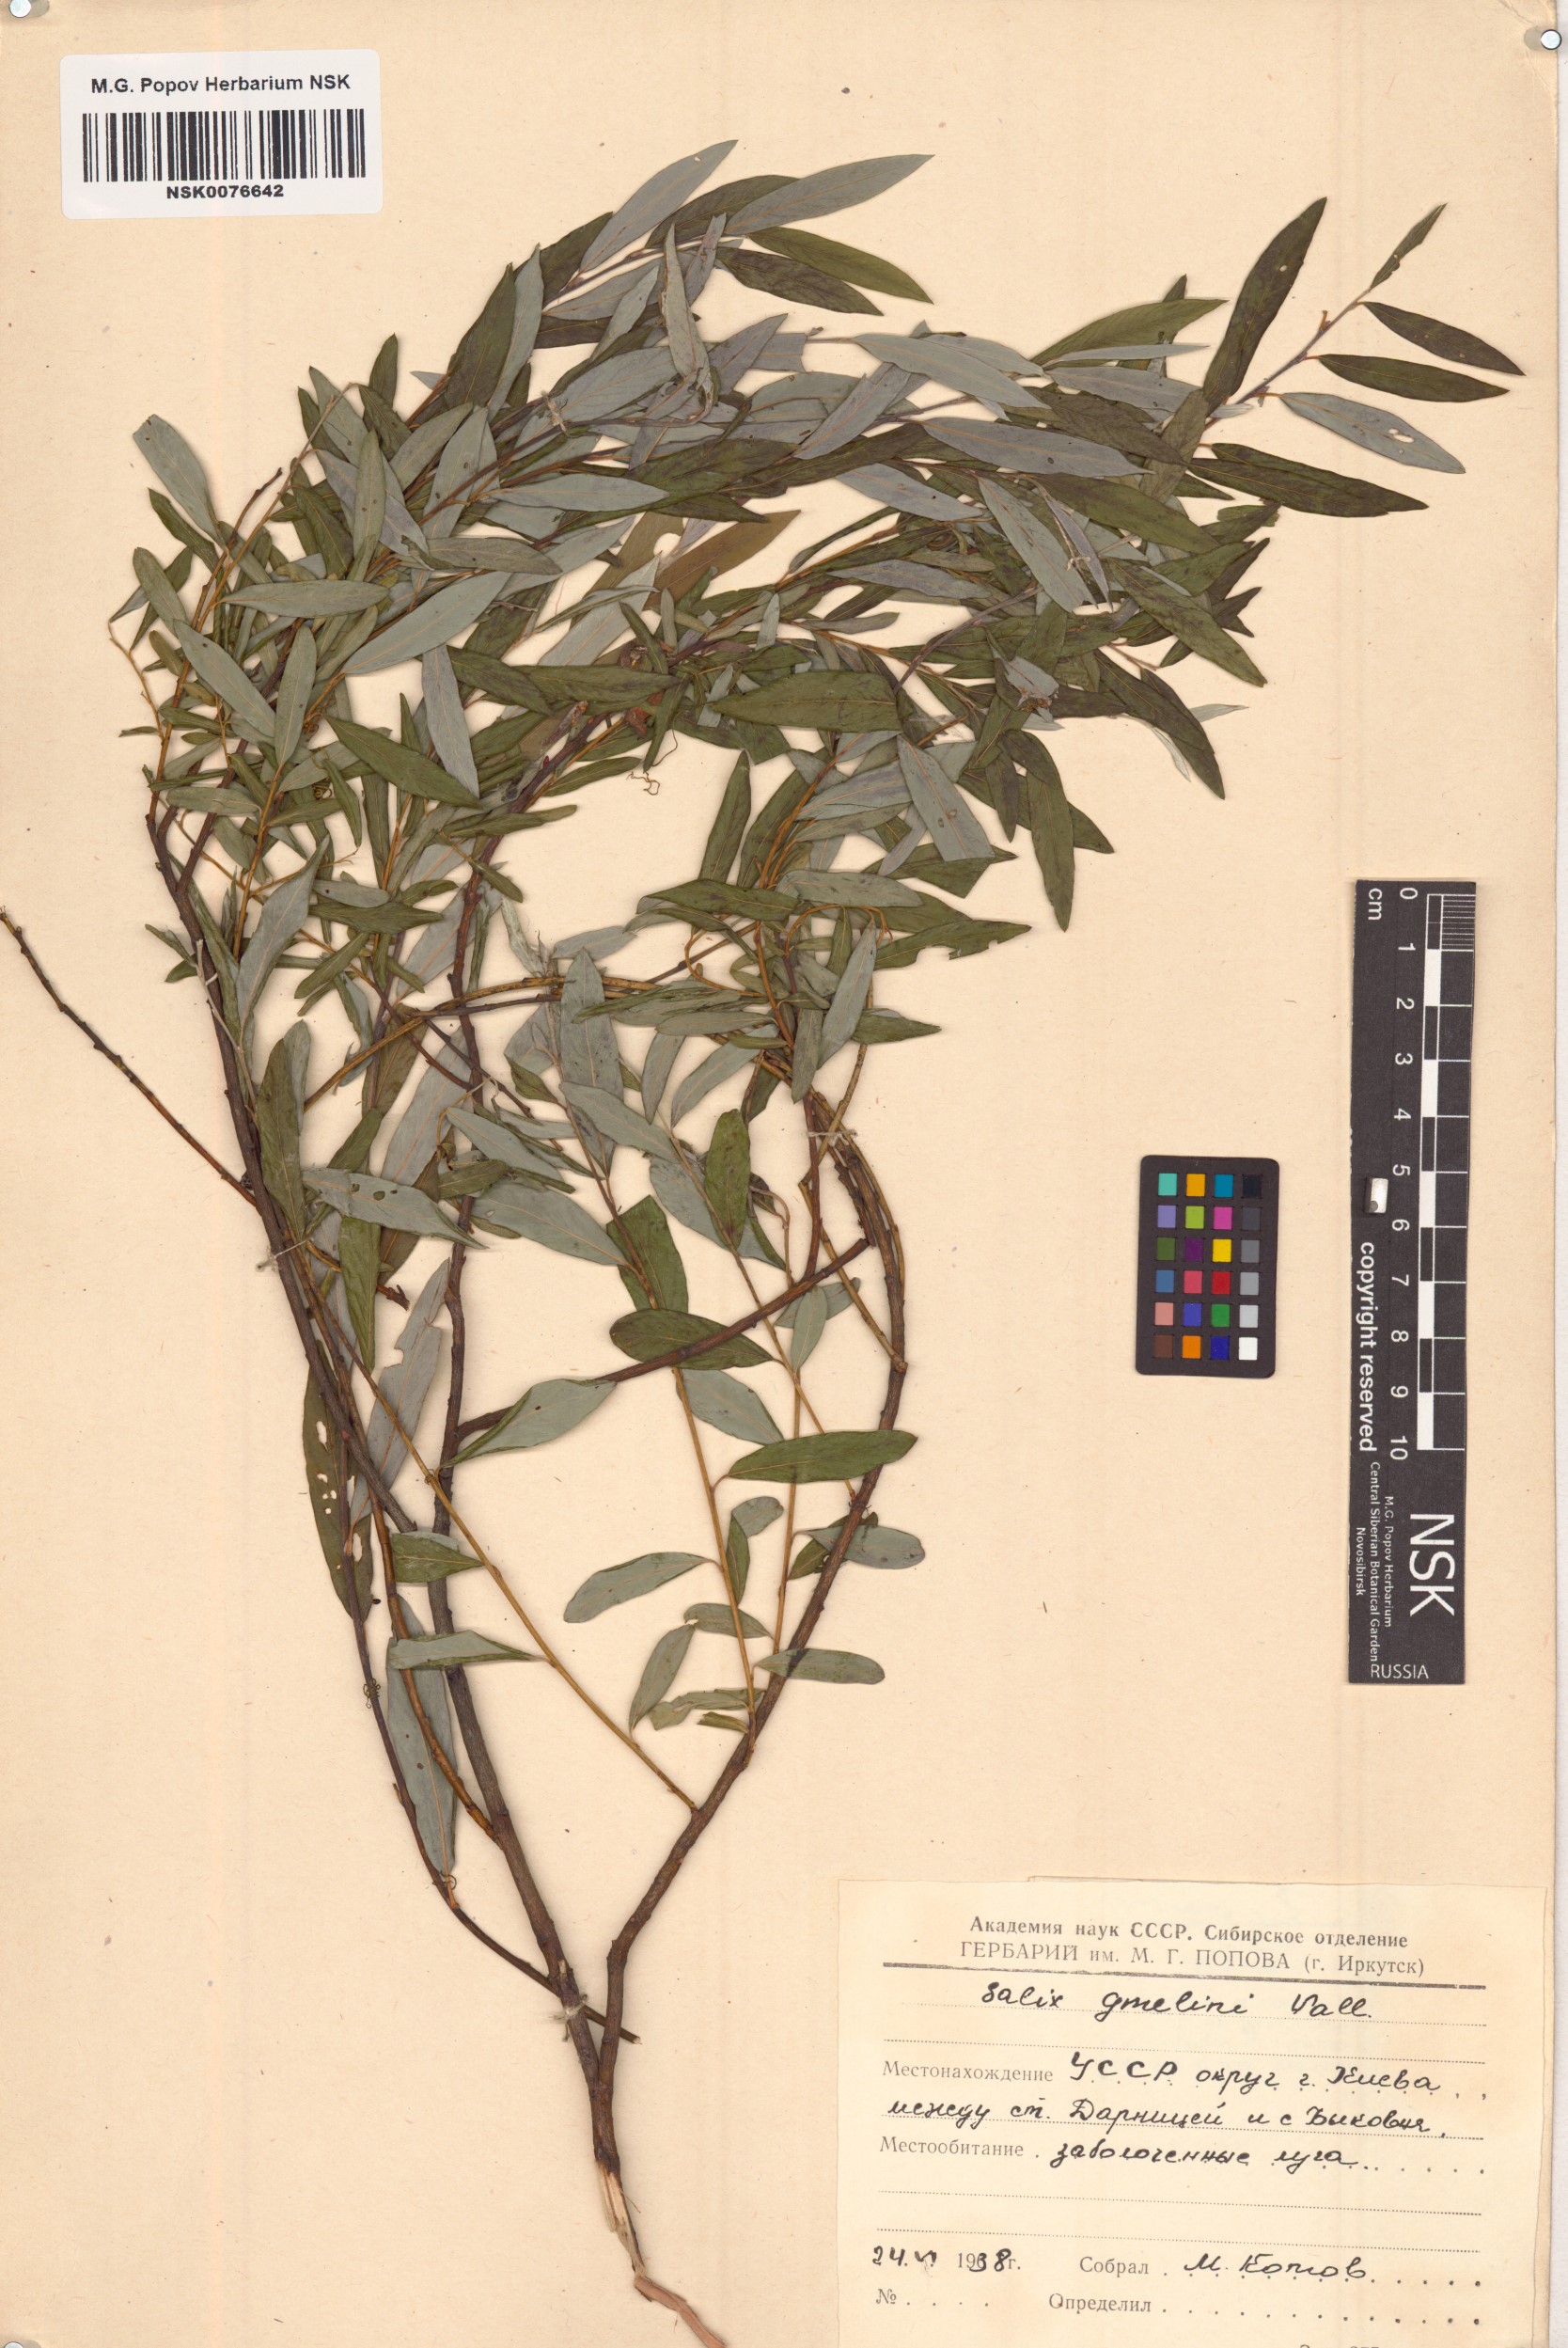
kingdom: Plantae
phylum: Tracheophyta
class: Magnoliopsida
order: Malpighiales
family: Salicaceae
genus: Salix
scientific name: Salix gmelinii
